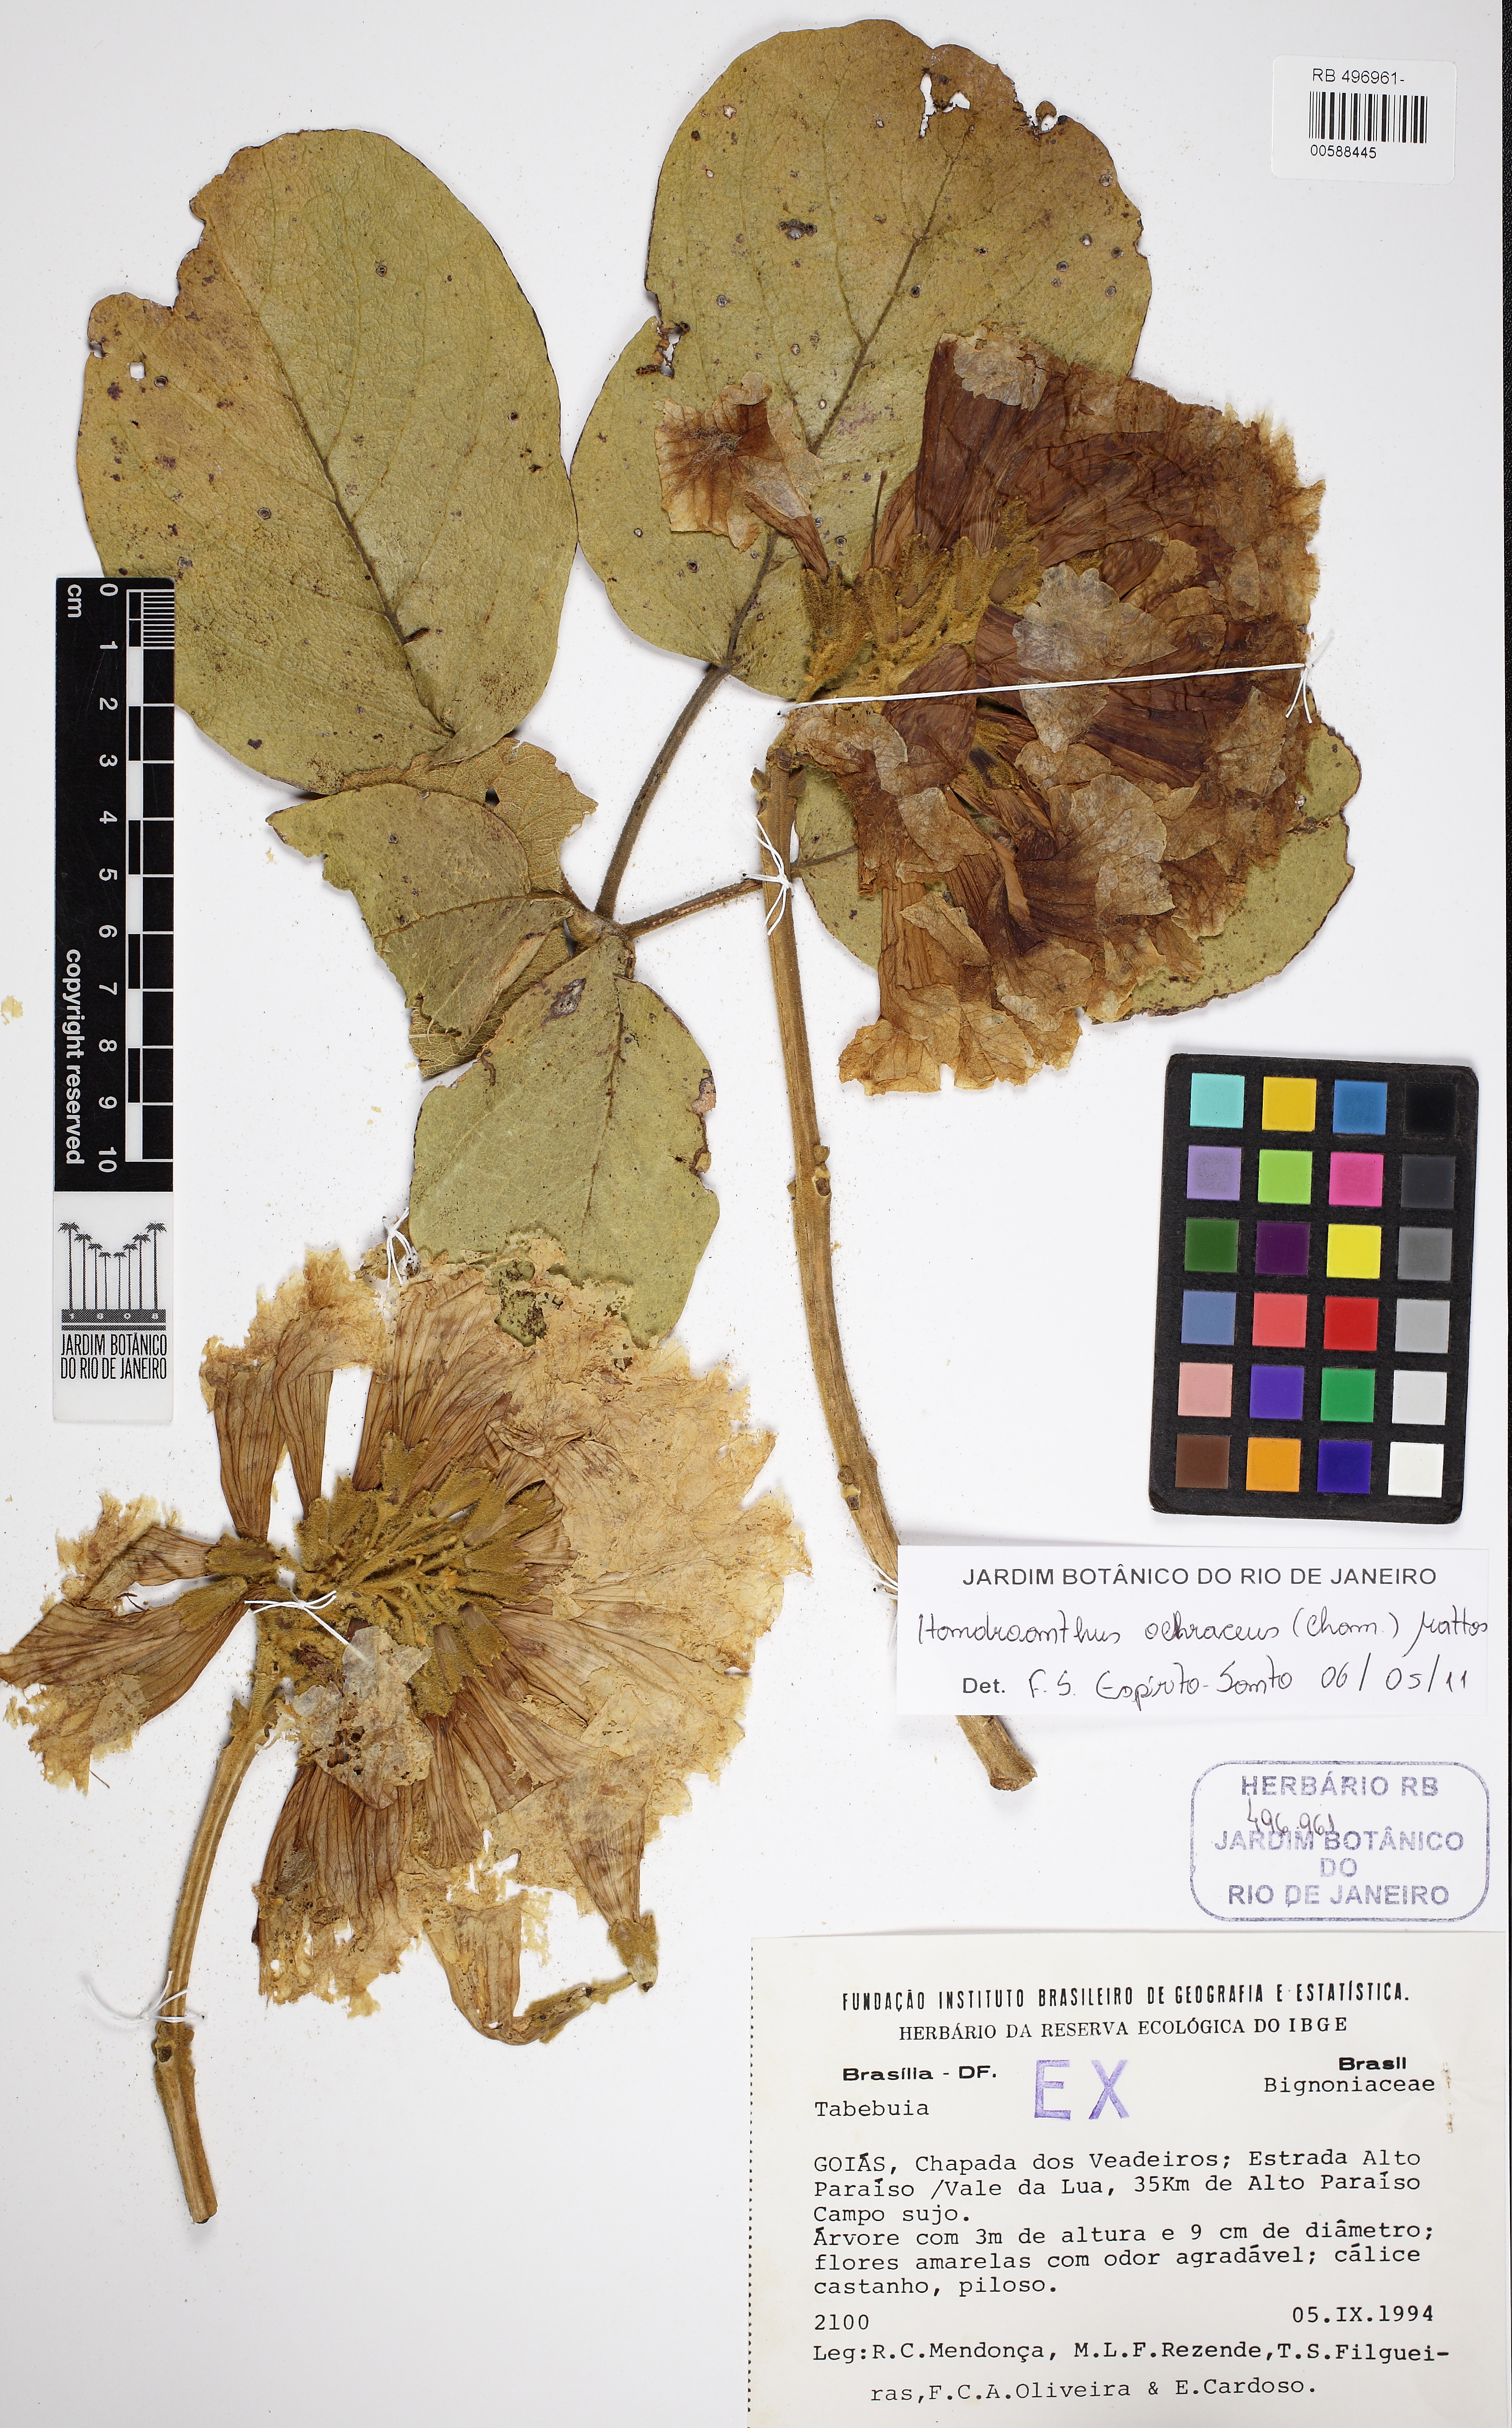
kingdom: Plantae
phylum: Tracheophyta
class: Magnoliopsida
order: Lamiales
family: Bignoniaceae
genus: Handroanthus
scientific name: Handroanthus ochraceus
